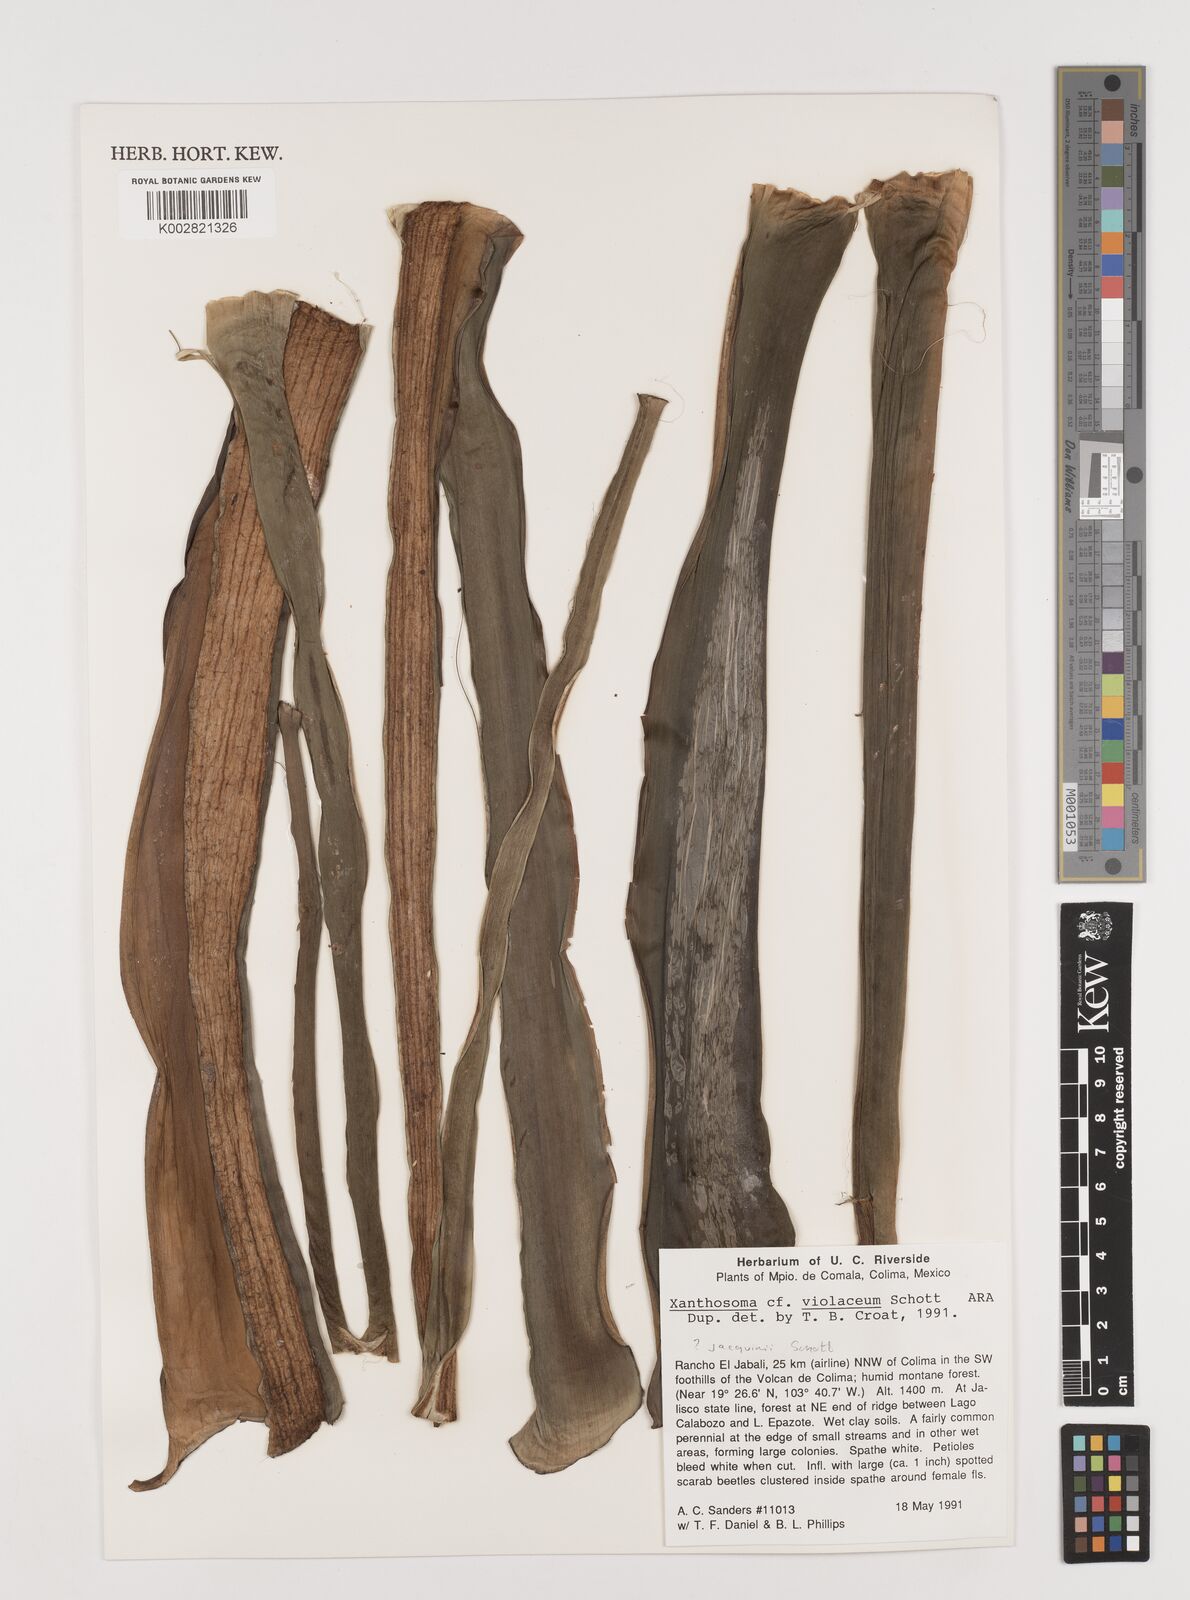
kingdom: Plantae
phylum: Tracheophyta
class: Liliopsida
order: Alismatales
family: Araceae
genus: Xanthosoma
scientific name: Xanthosoma undipes
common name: Tall elephant's ear
